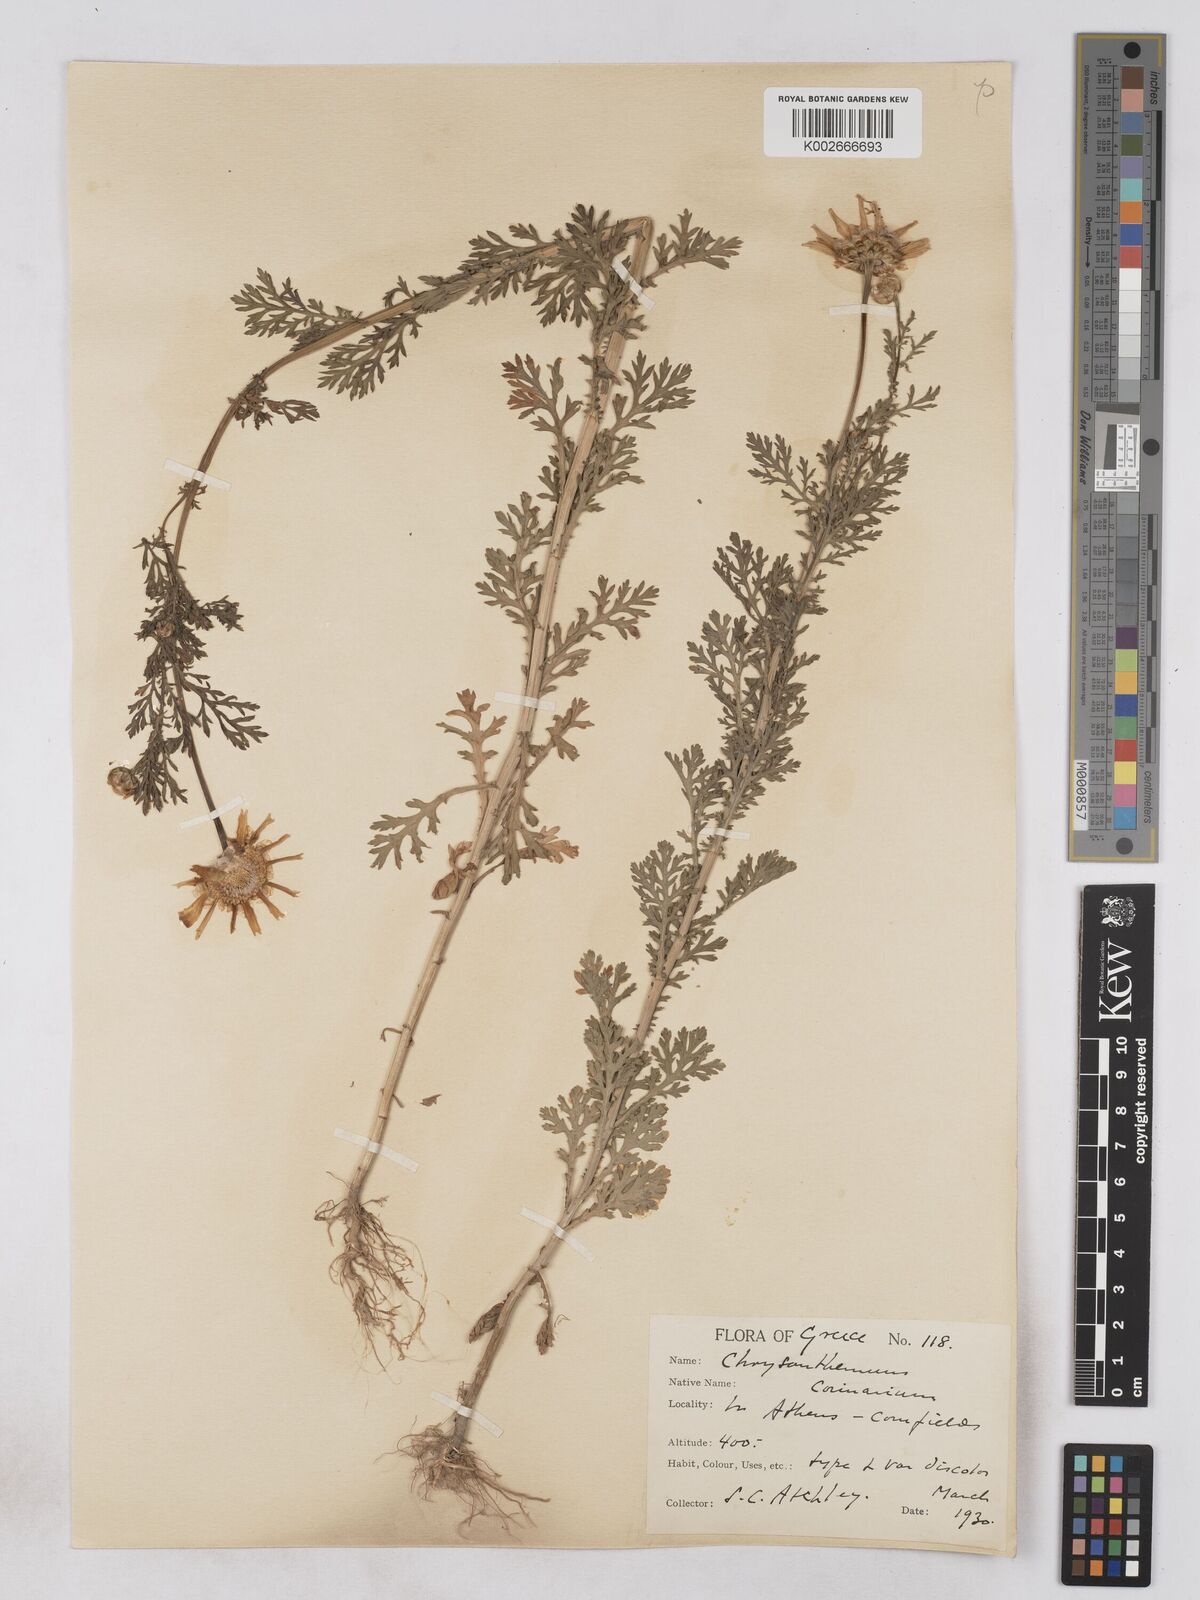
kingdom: Plantae
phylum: Tracheophyta
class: Magnoliopsida
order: Asterales
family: Asteraceae
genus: Glebionis
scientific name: Glebionis coronaria
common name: Crowndaisy
